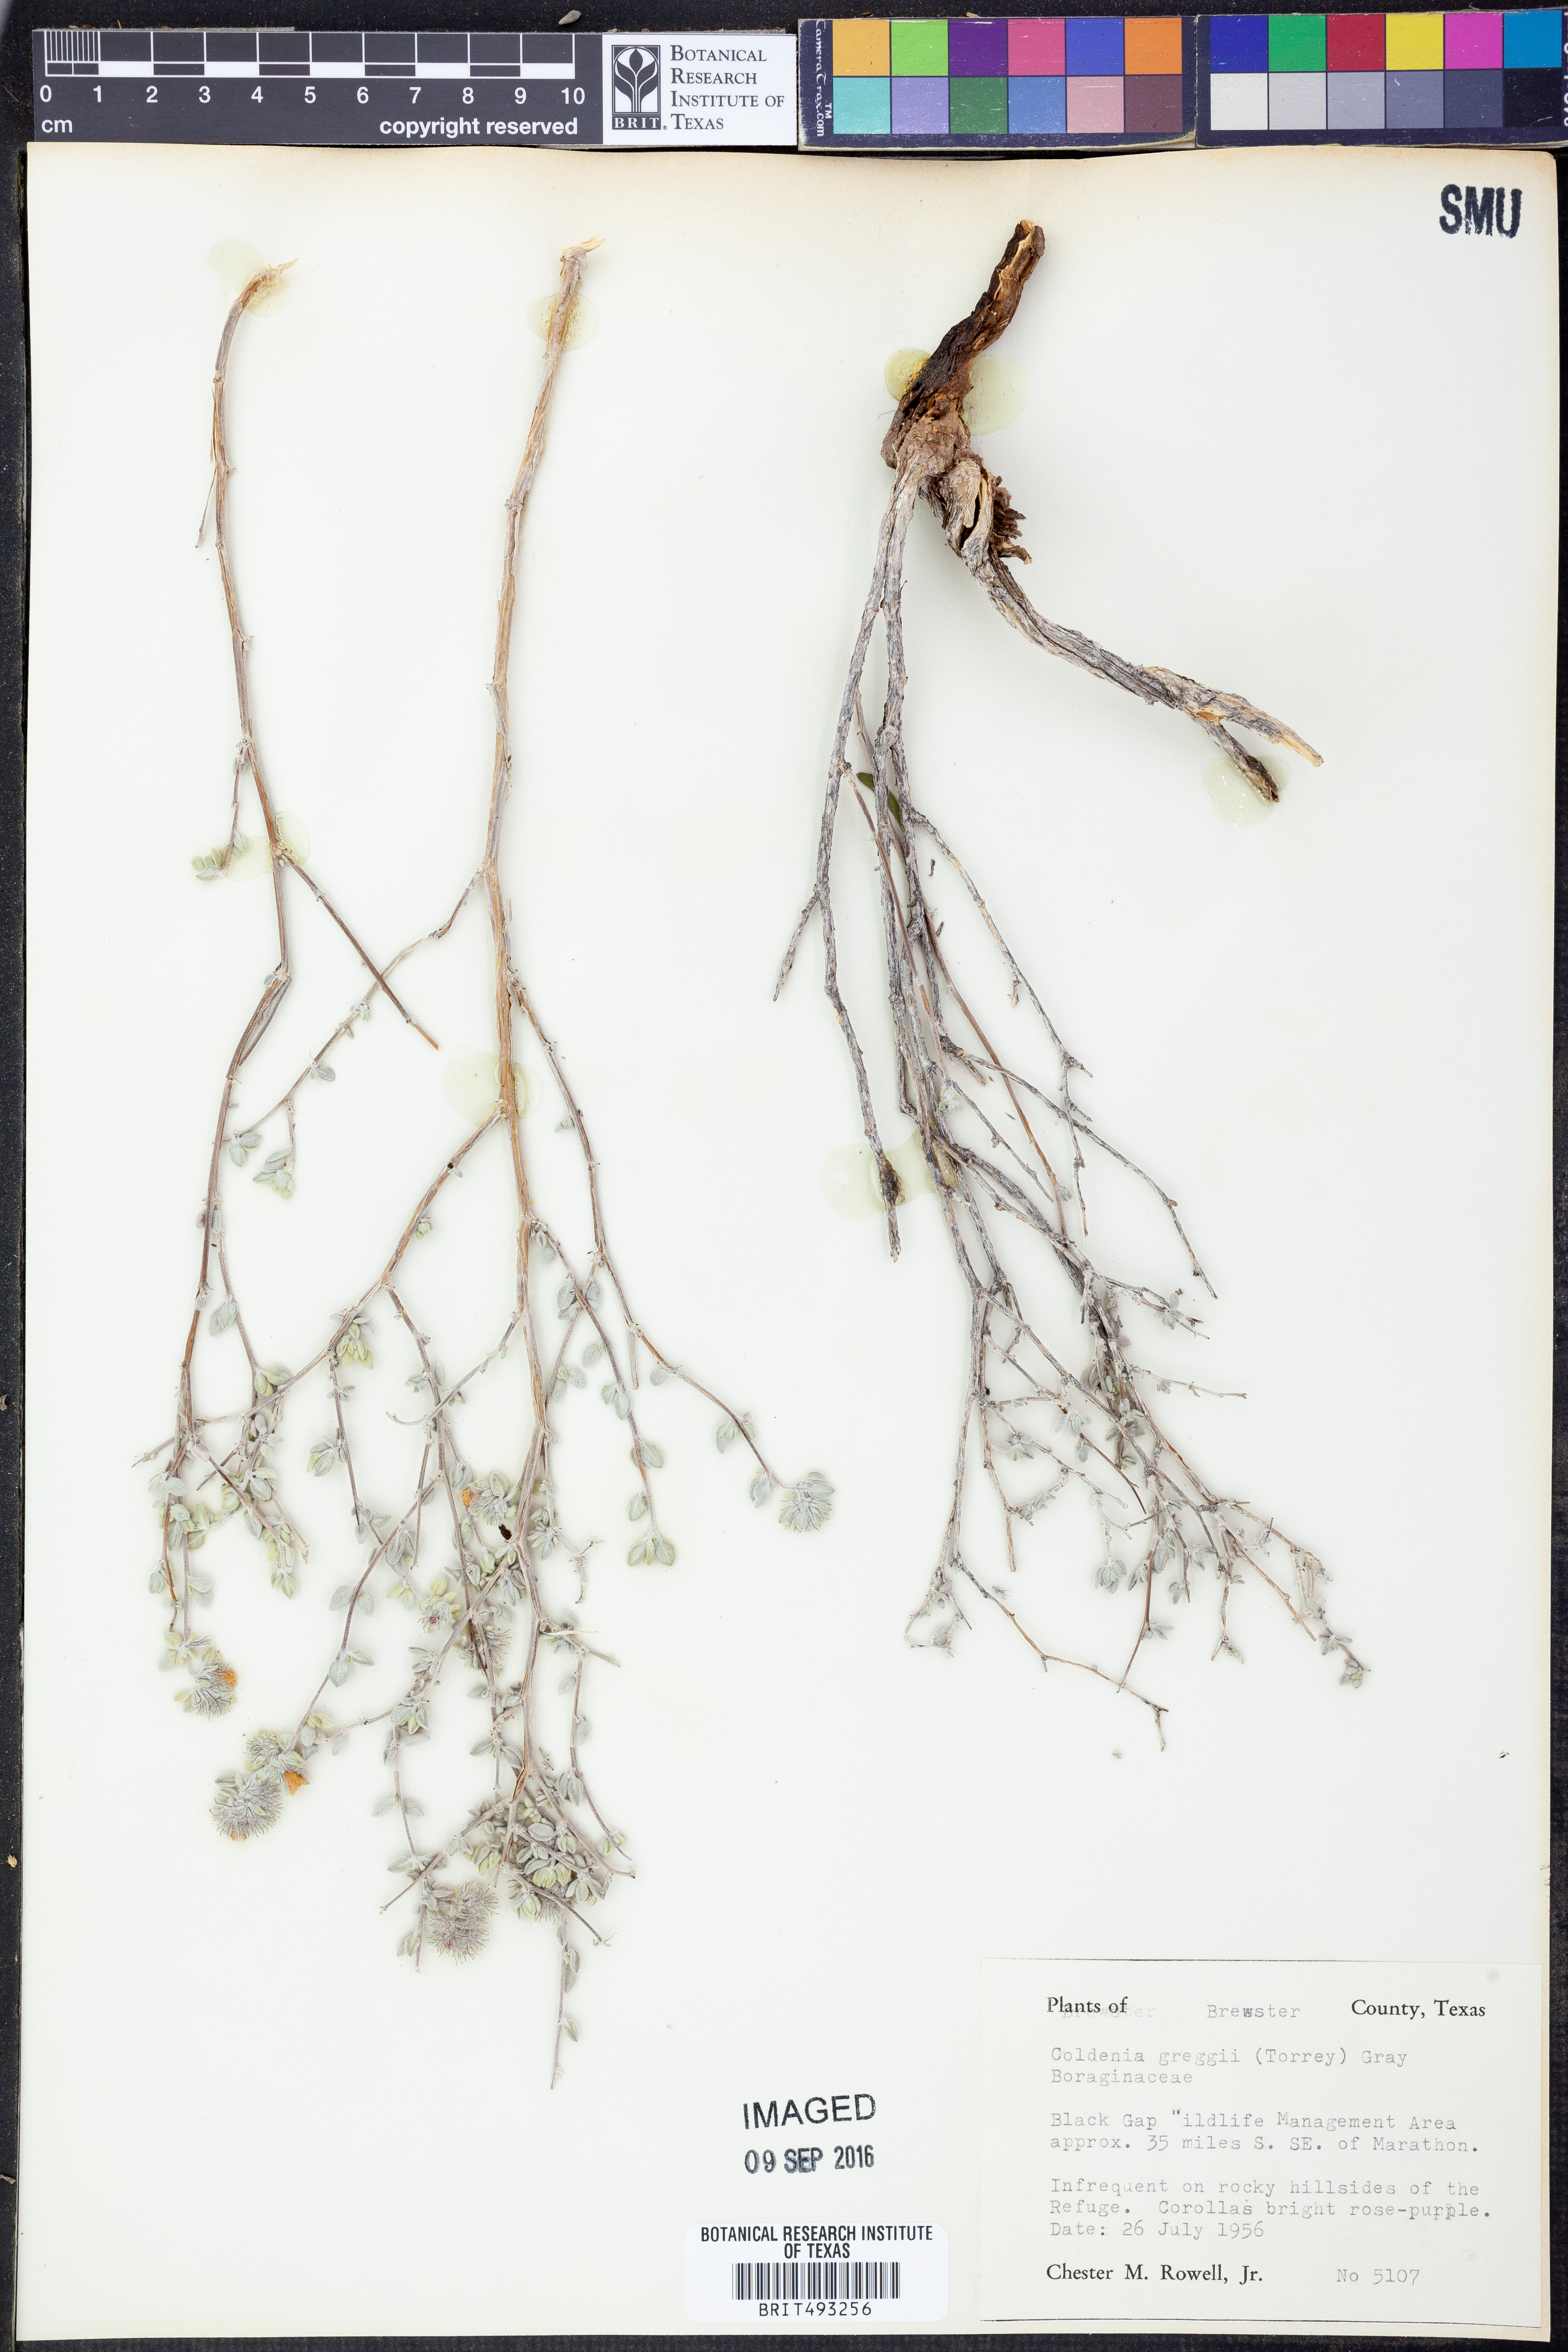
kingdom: Plantae
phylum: Tracheophyta
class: Magnoliopsida
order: Boraginales
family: Ehretiaceae
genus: Tiquilia
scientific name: Tiquilia greggii
